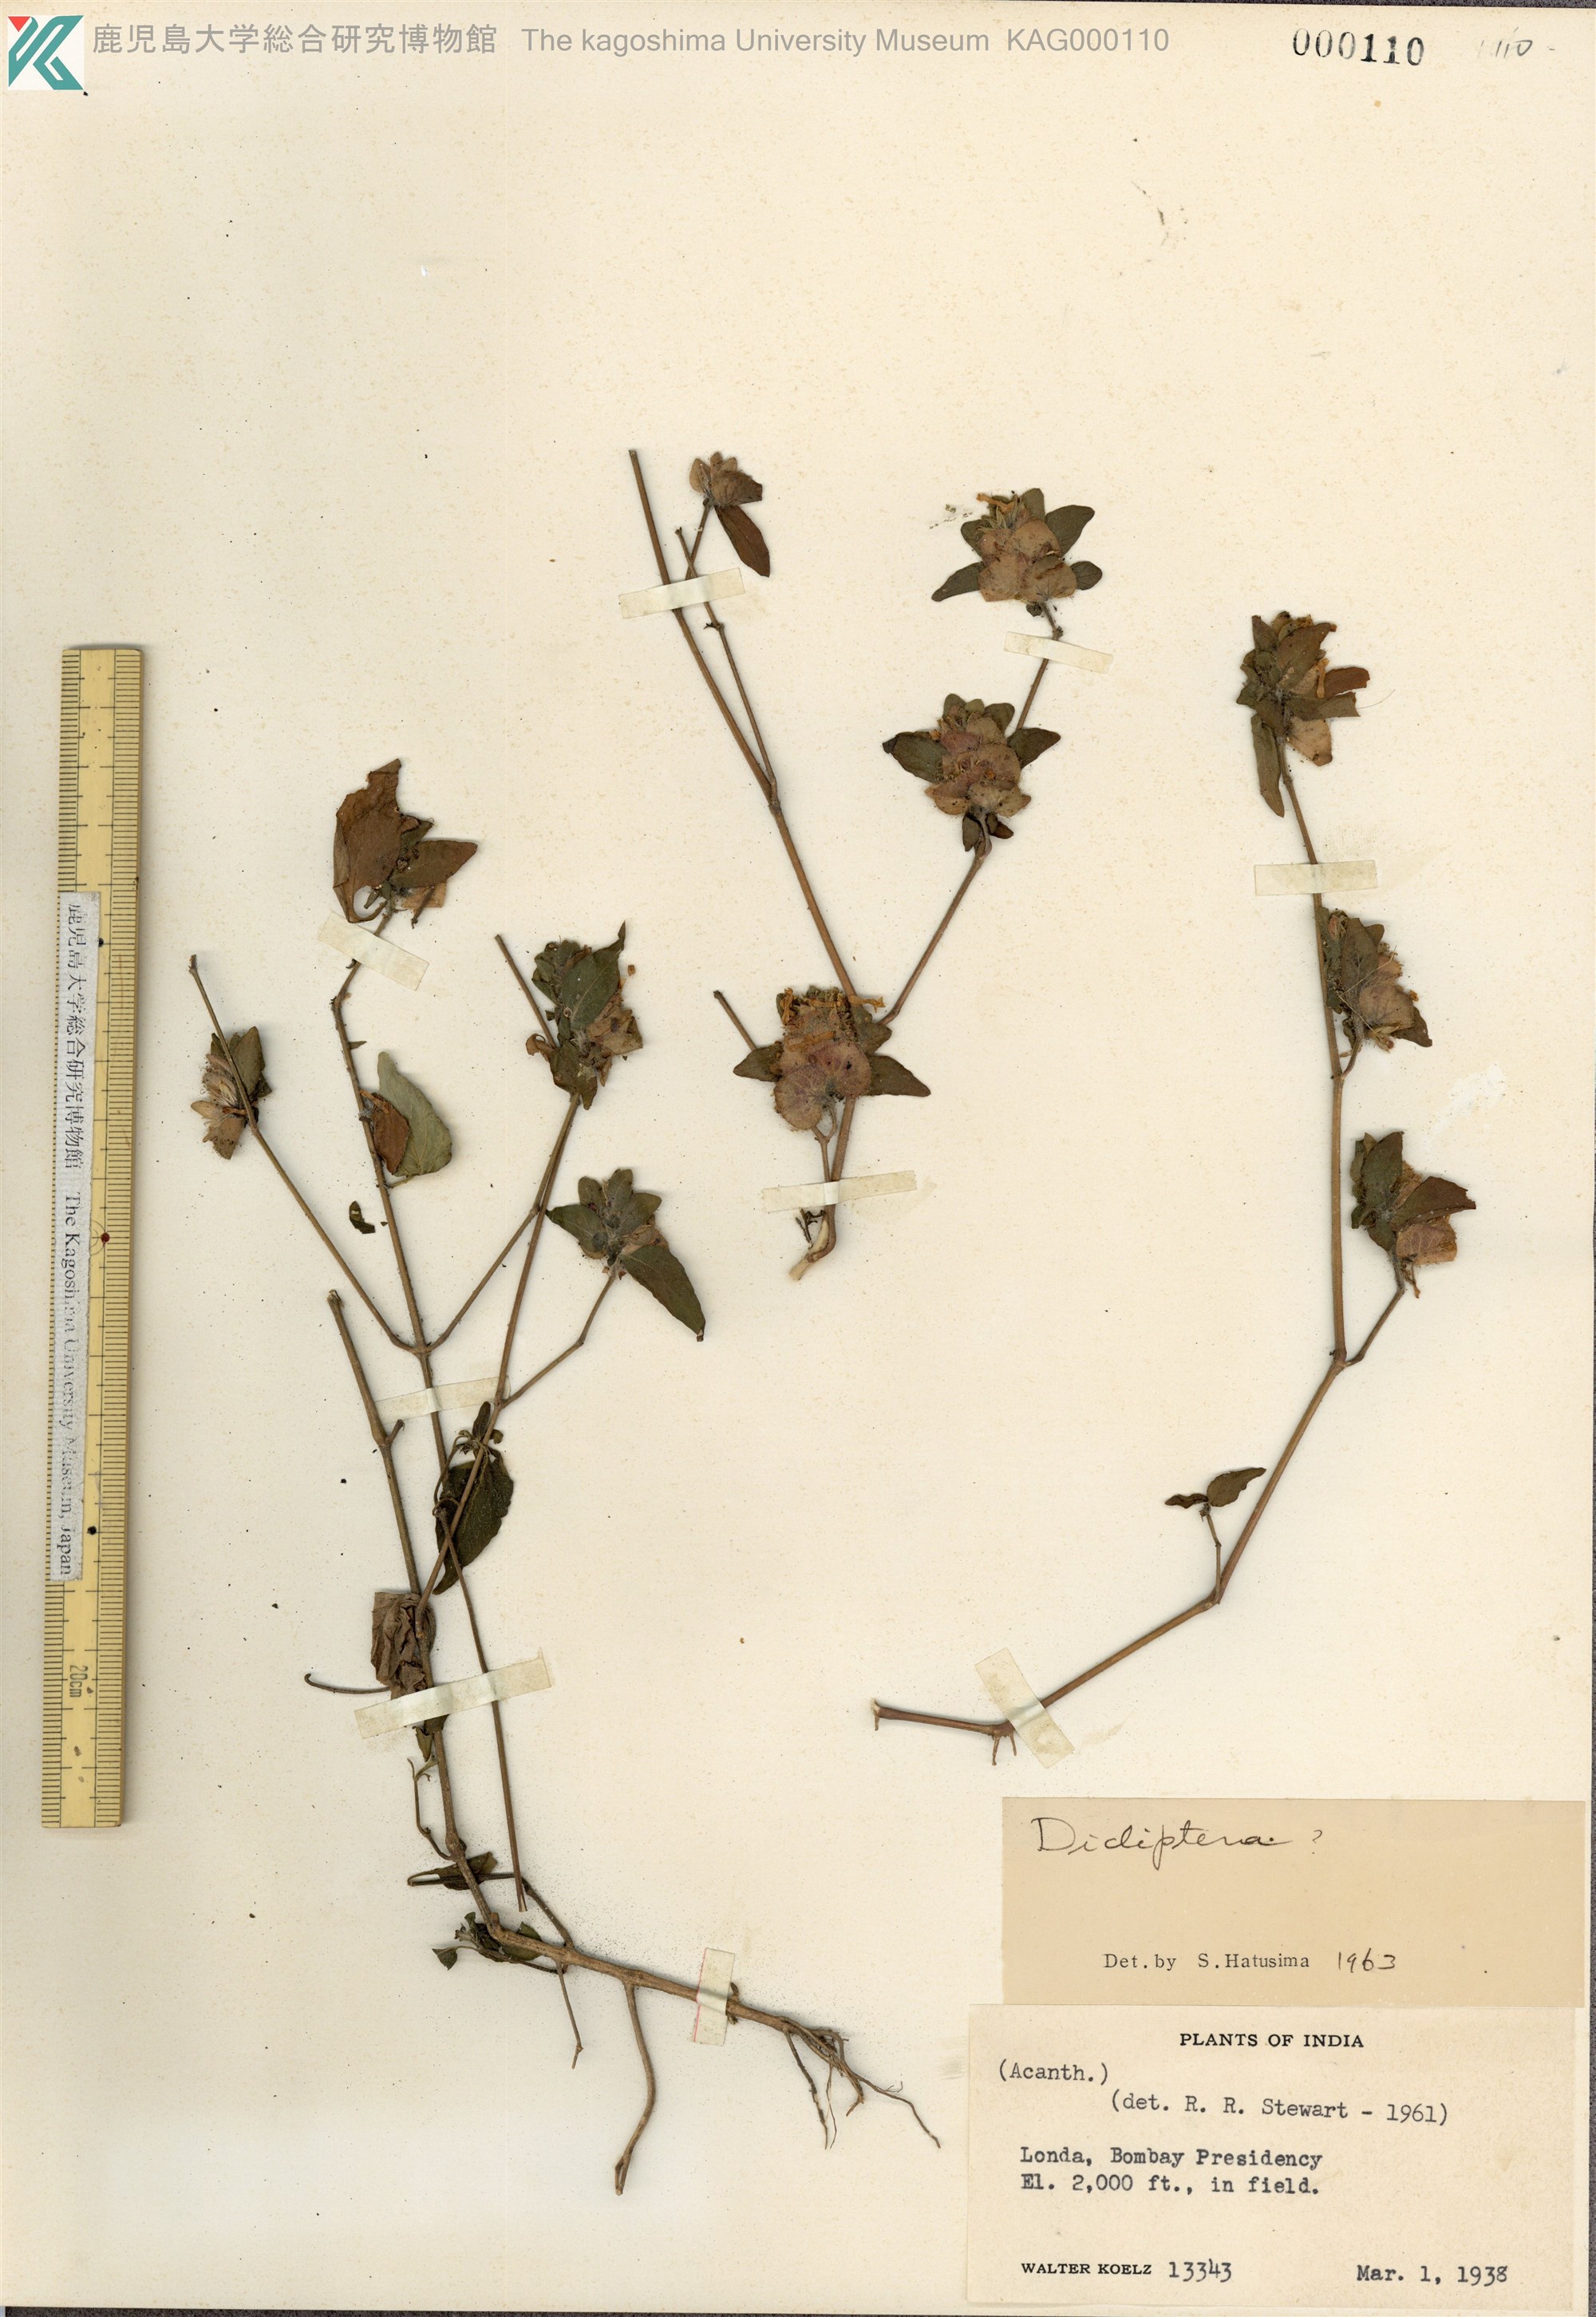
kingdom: Plantae
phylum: Tracheophyta
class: Magnoliopsida
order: Lamiales
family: Acanthaceae
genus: Dicliptera
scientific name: Dicliptera
